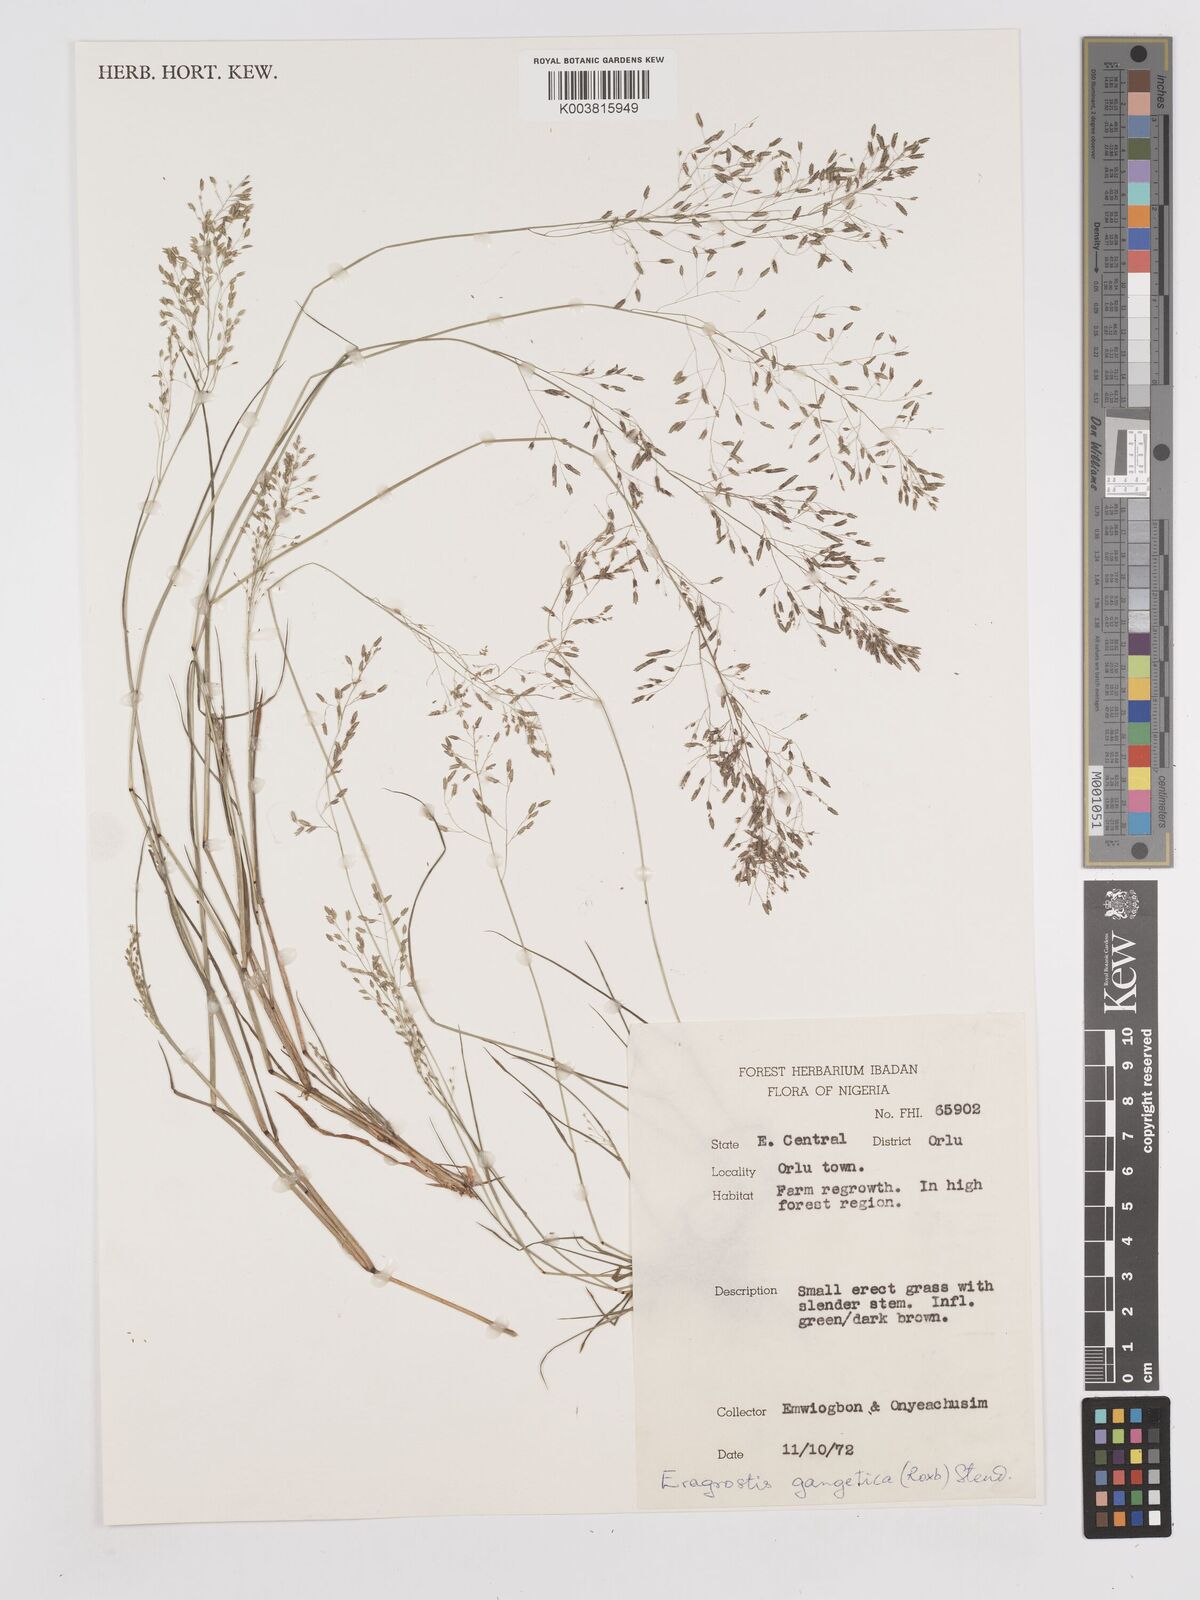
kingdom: Plantae
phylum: Tracheophyta
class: Liliopsida
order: Poales
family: Poaceae
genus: Eragrostis
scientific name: Eragrostis gangetica
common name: Slimflower lovegrass
